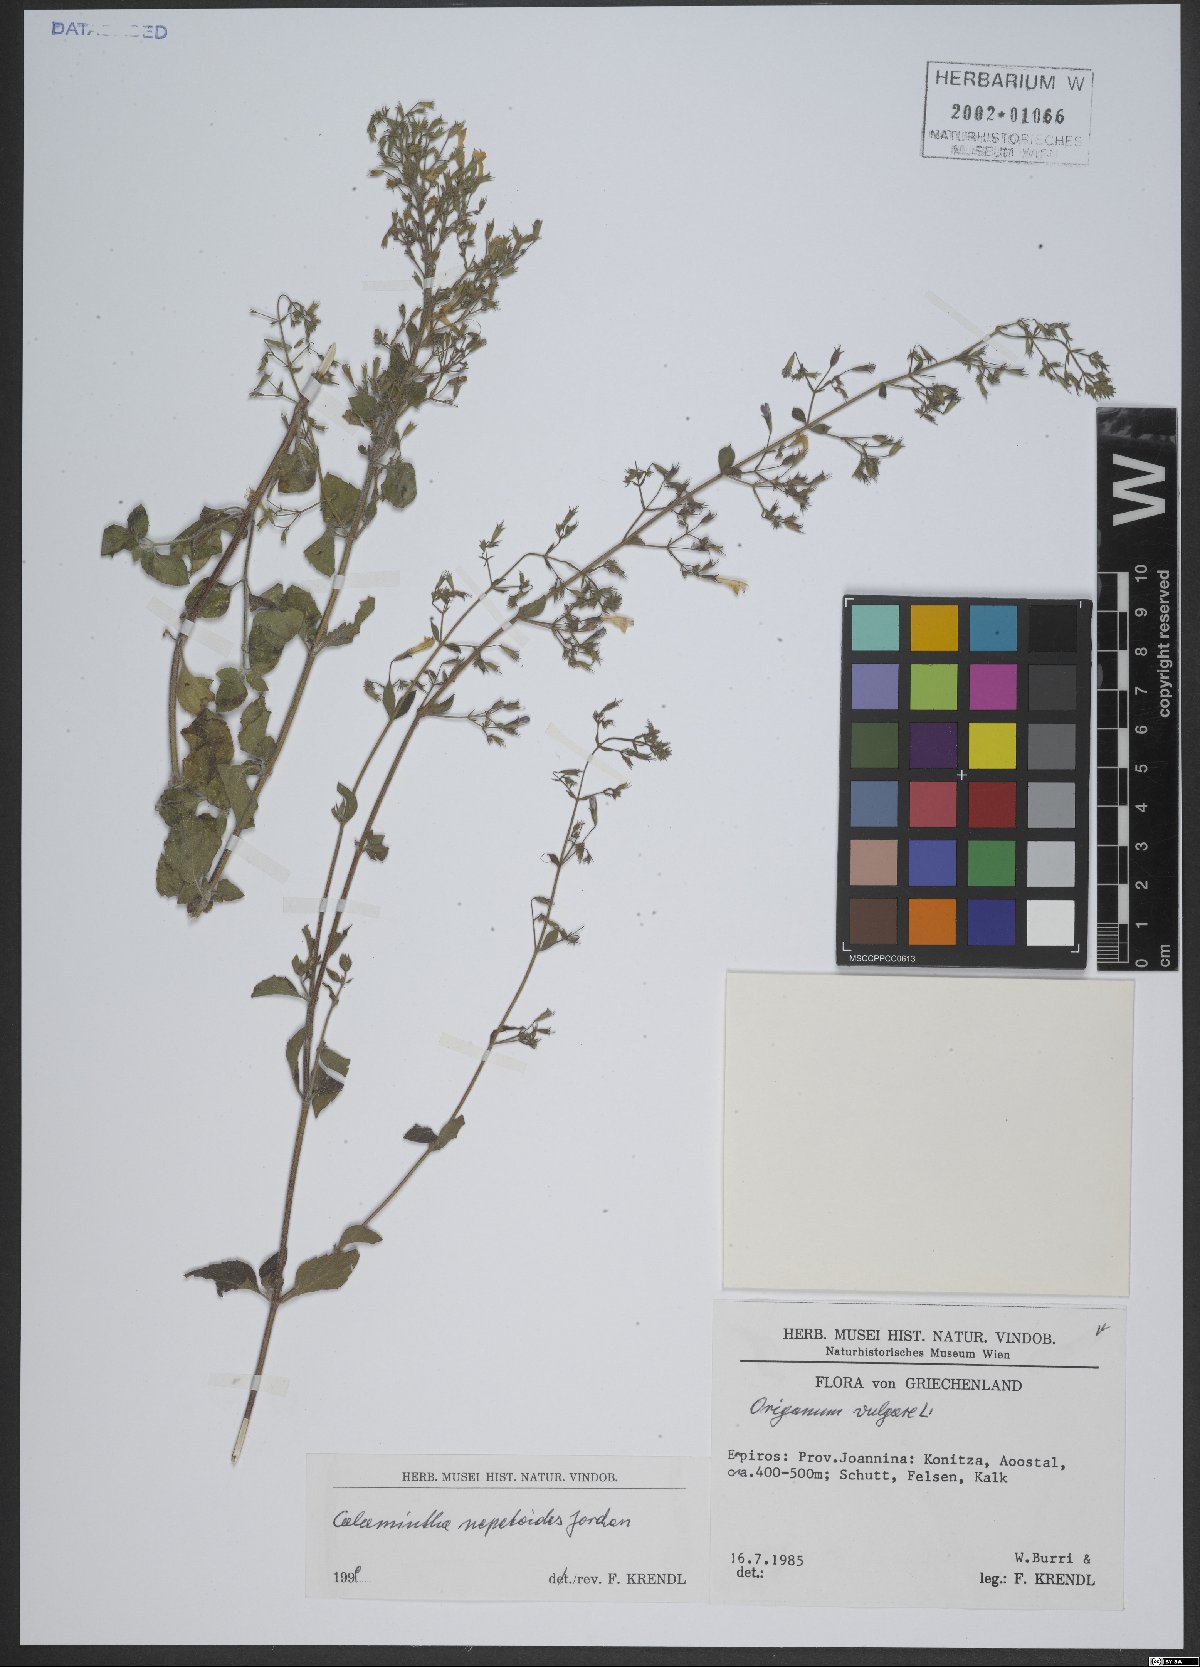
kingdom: Plantae
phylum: Tracheophyta
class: Magnoliopsida
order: Lamiales
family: Lamiaceae
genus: Clinopodium
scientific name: Clinopodium nepeta
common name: Lesser calamint
